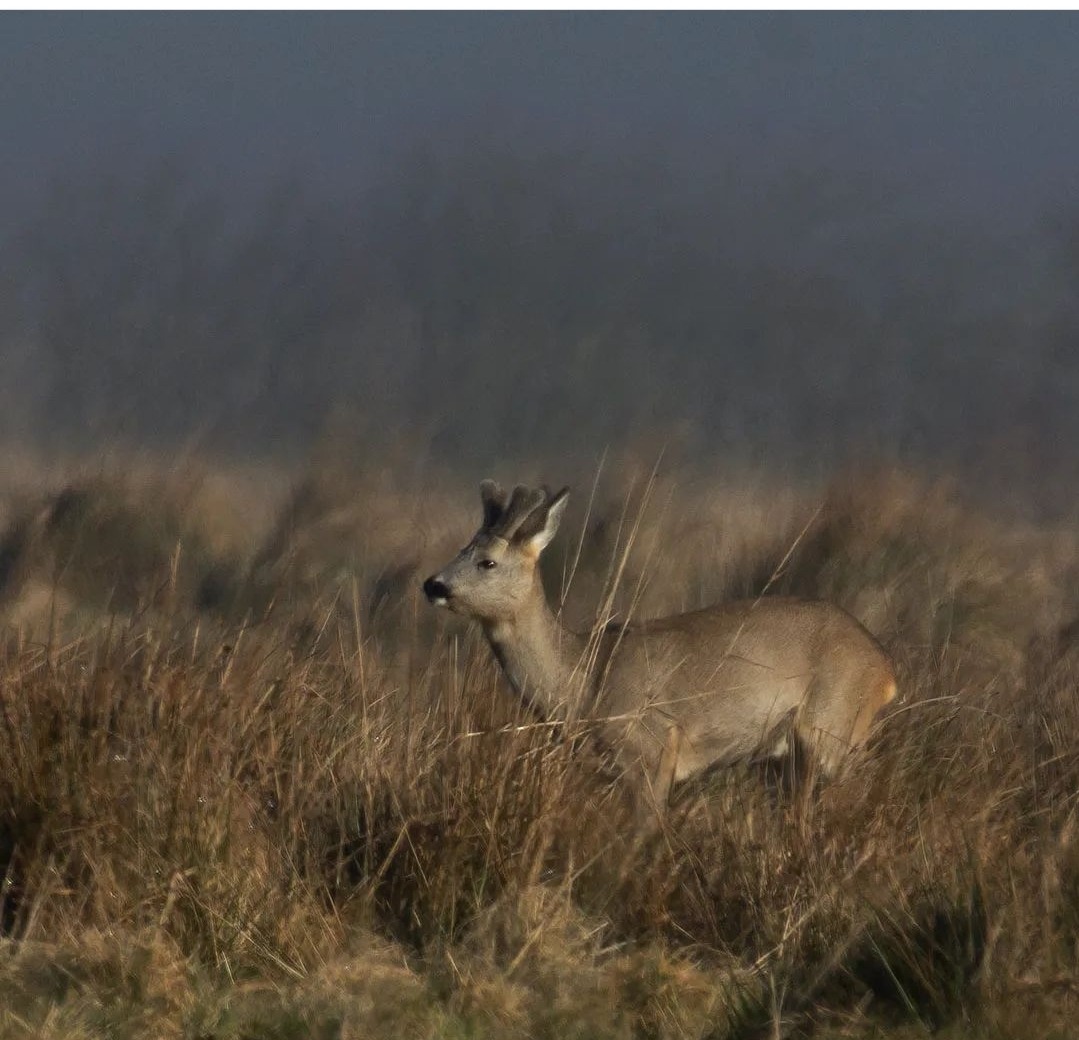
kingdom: Animalia
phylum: Chordata
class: Mammalia
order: Artiodactyla
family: Cervidae
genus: Capreolus
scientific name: Capreolus capreolus
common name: Rådyr
